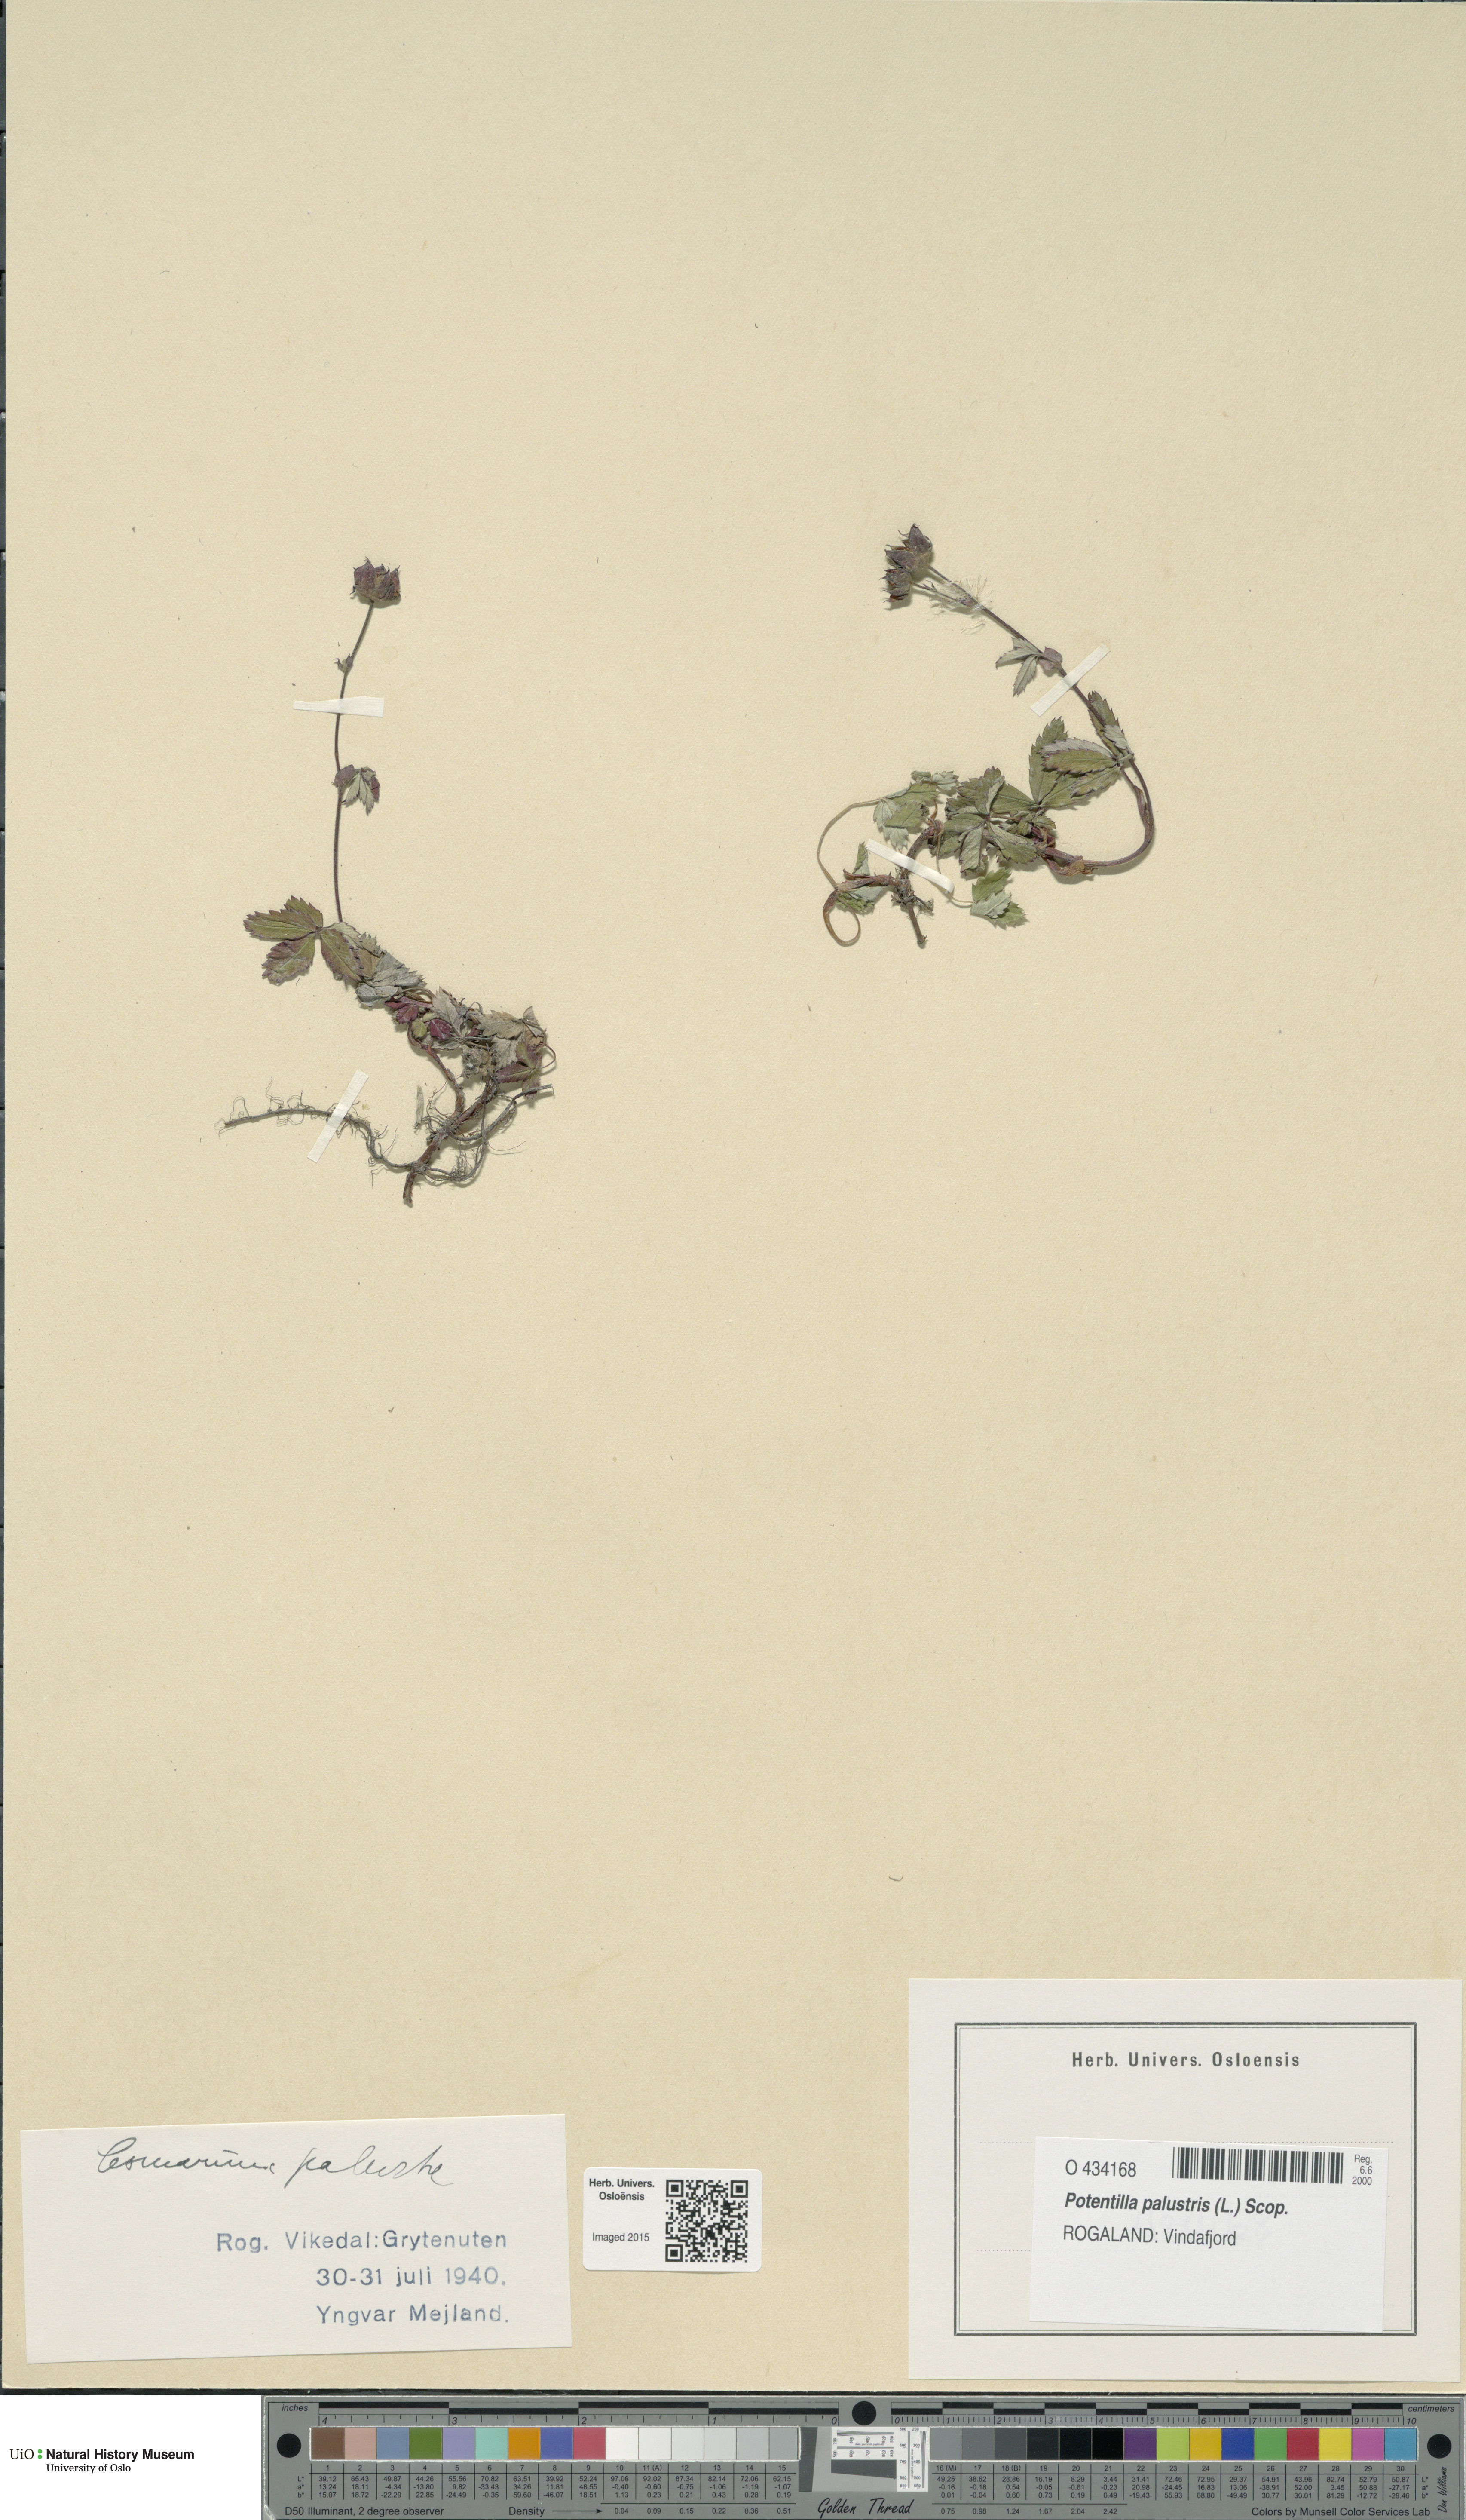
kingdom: Plantae
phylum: Tracheophyta
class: Magnoliopsida
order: Rosales
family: Rosaceae
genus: Comarum
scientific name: Comarum palustre
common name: Marsh cinquefoil
